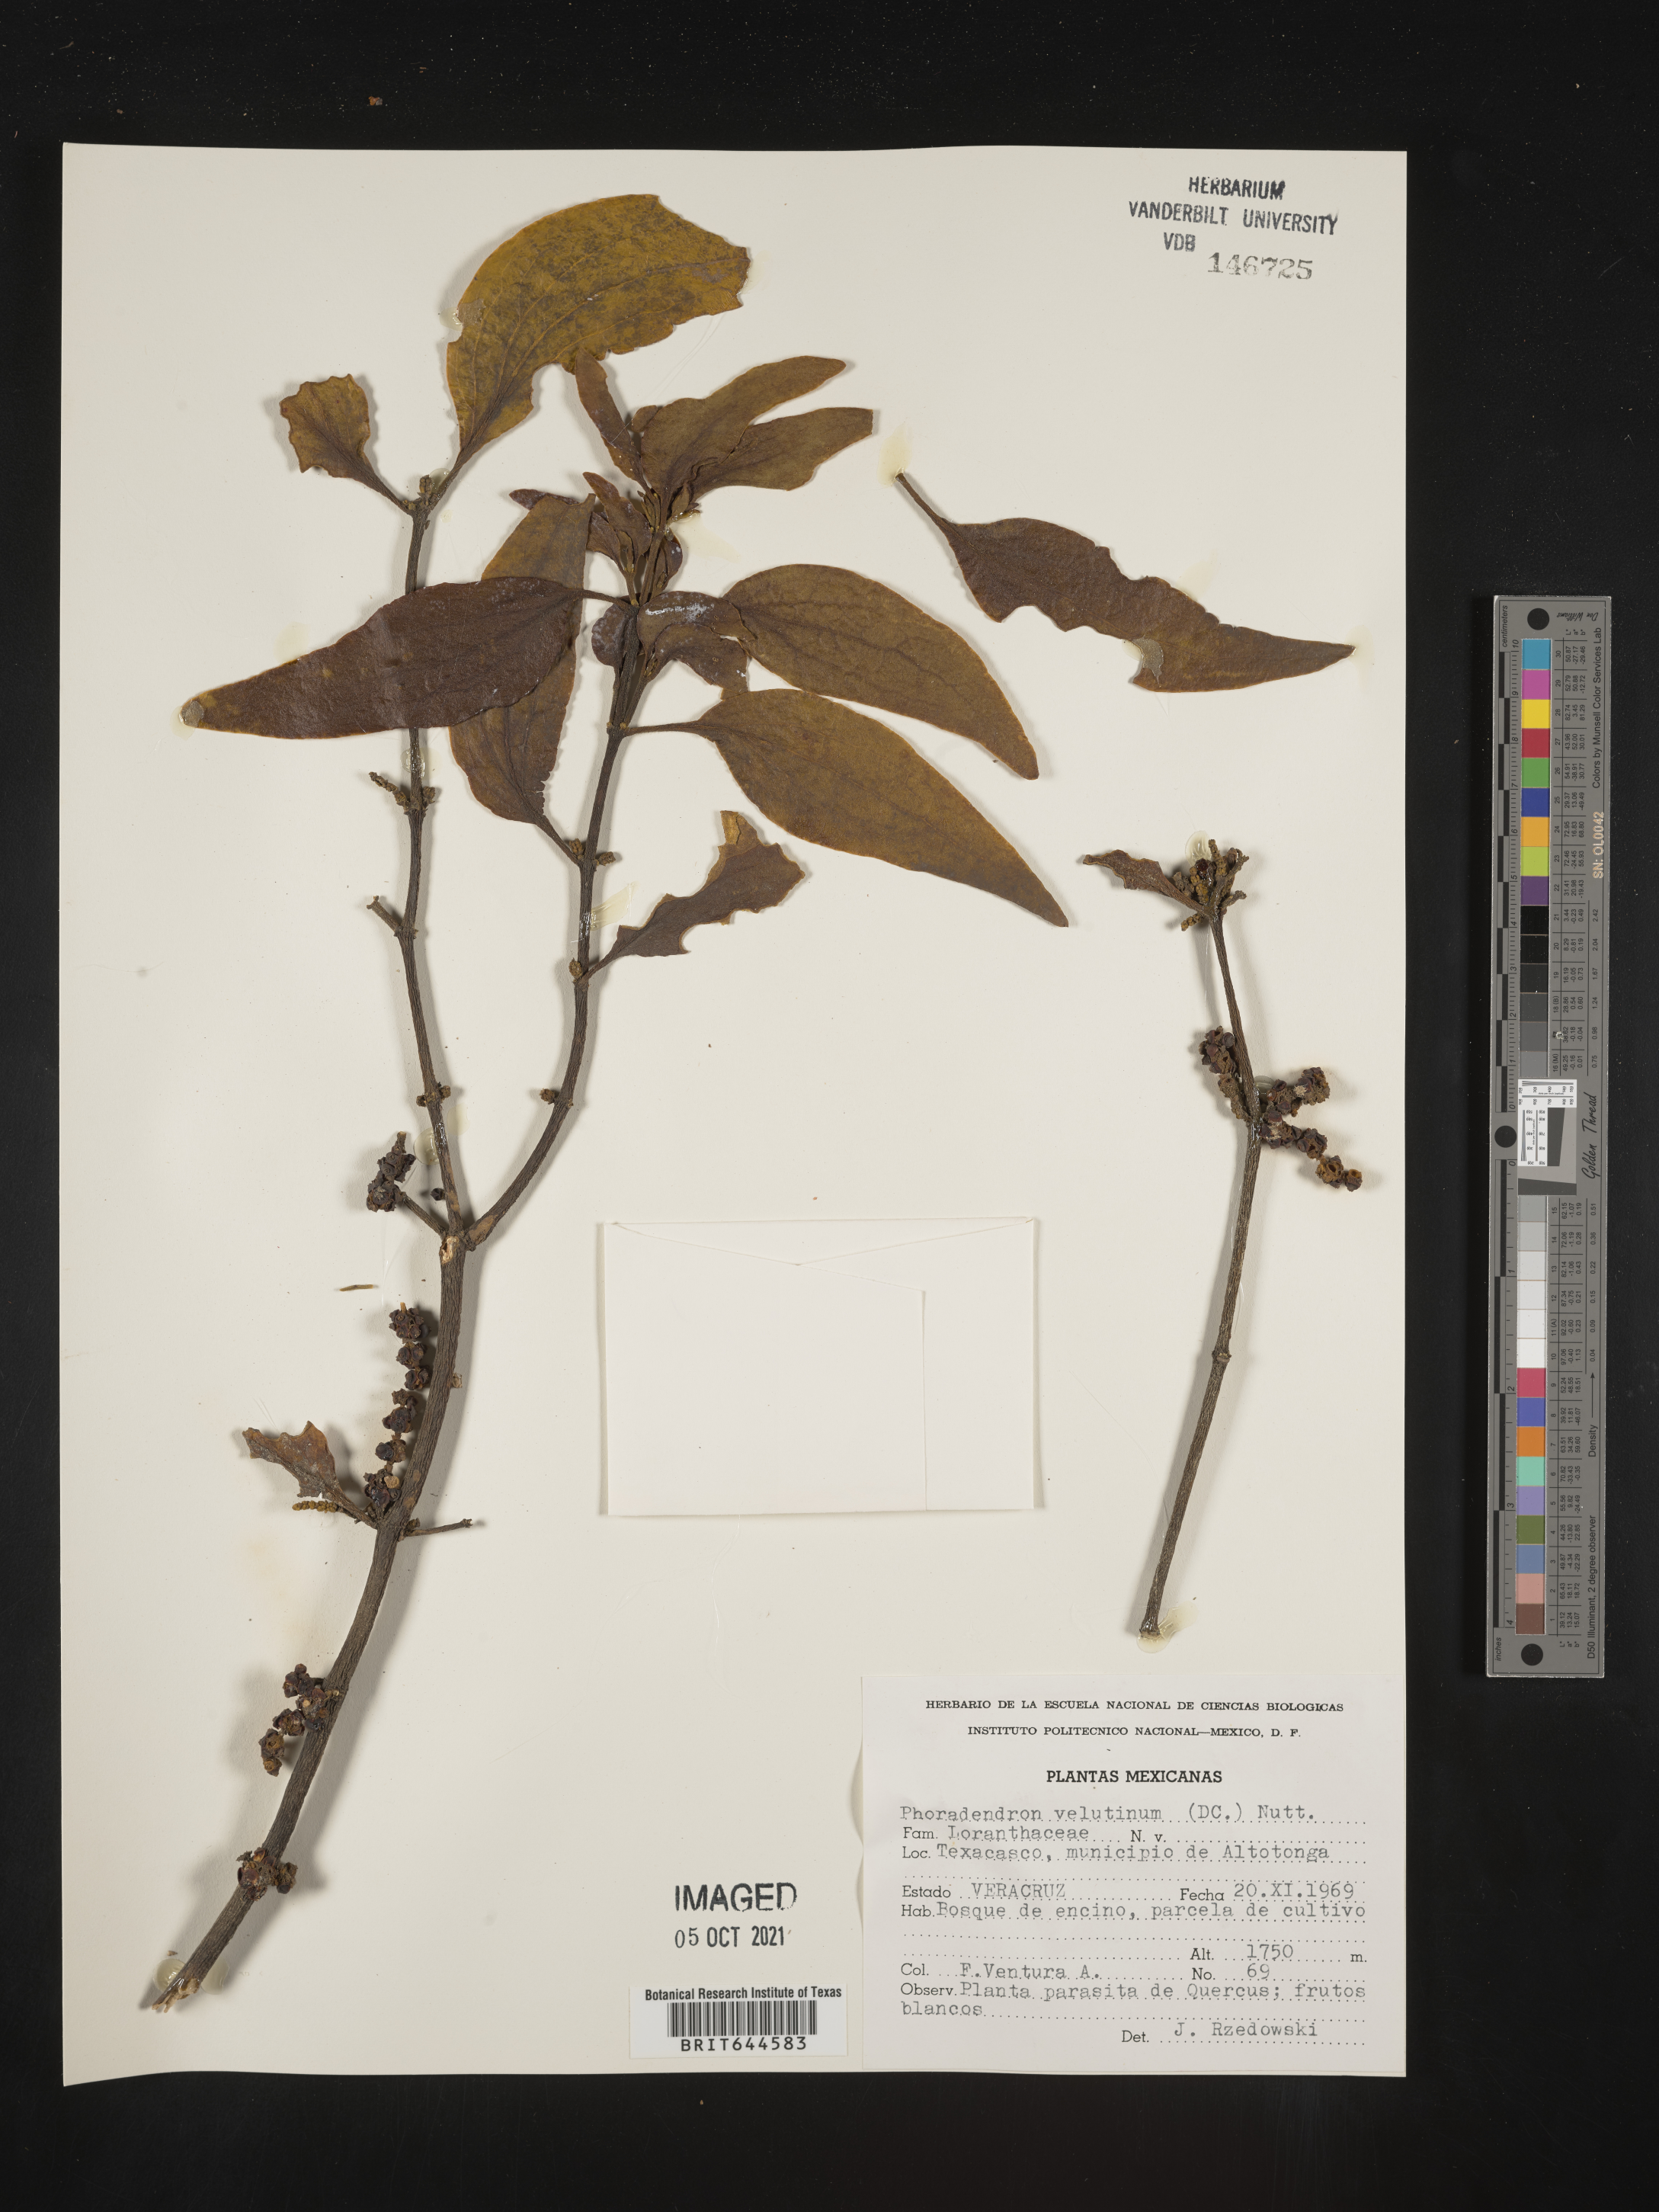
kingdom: Plantae
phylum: Tracheophyta
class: Magnoliopsida
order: Santalales
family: Viscaceae
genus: Phoradendron
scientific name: Phoradendron
